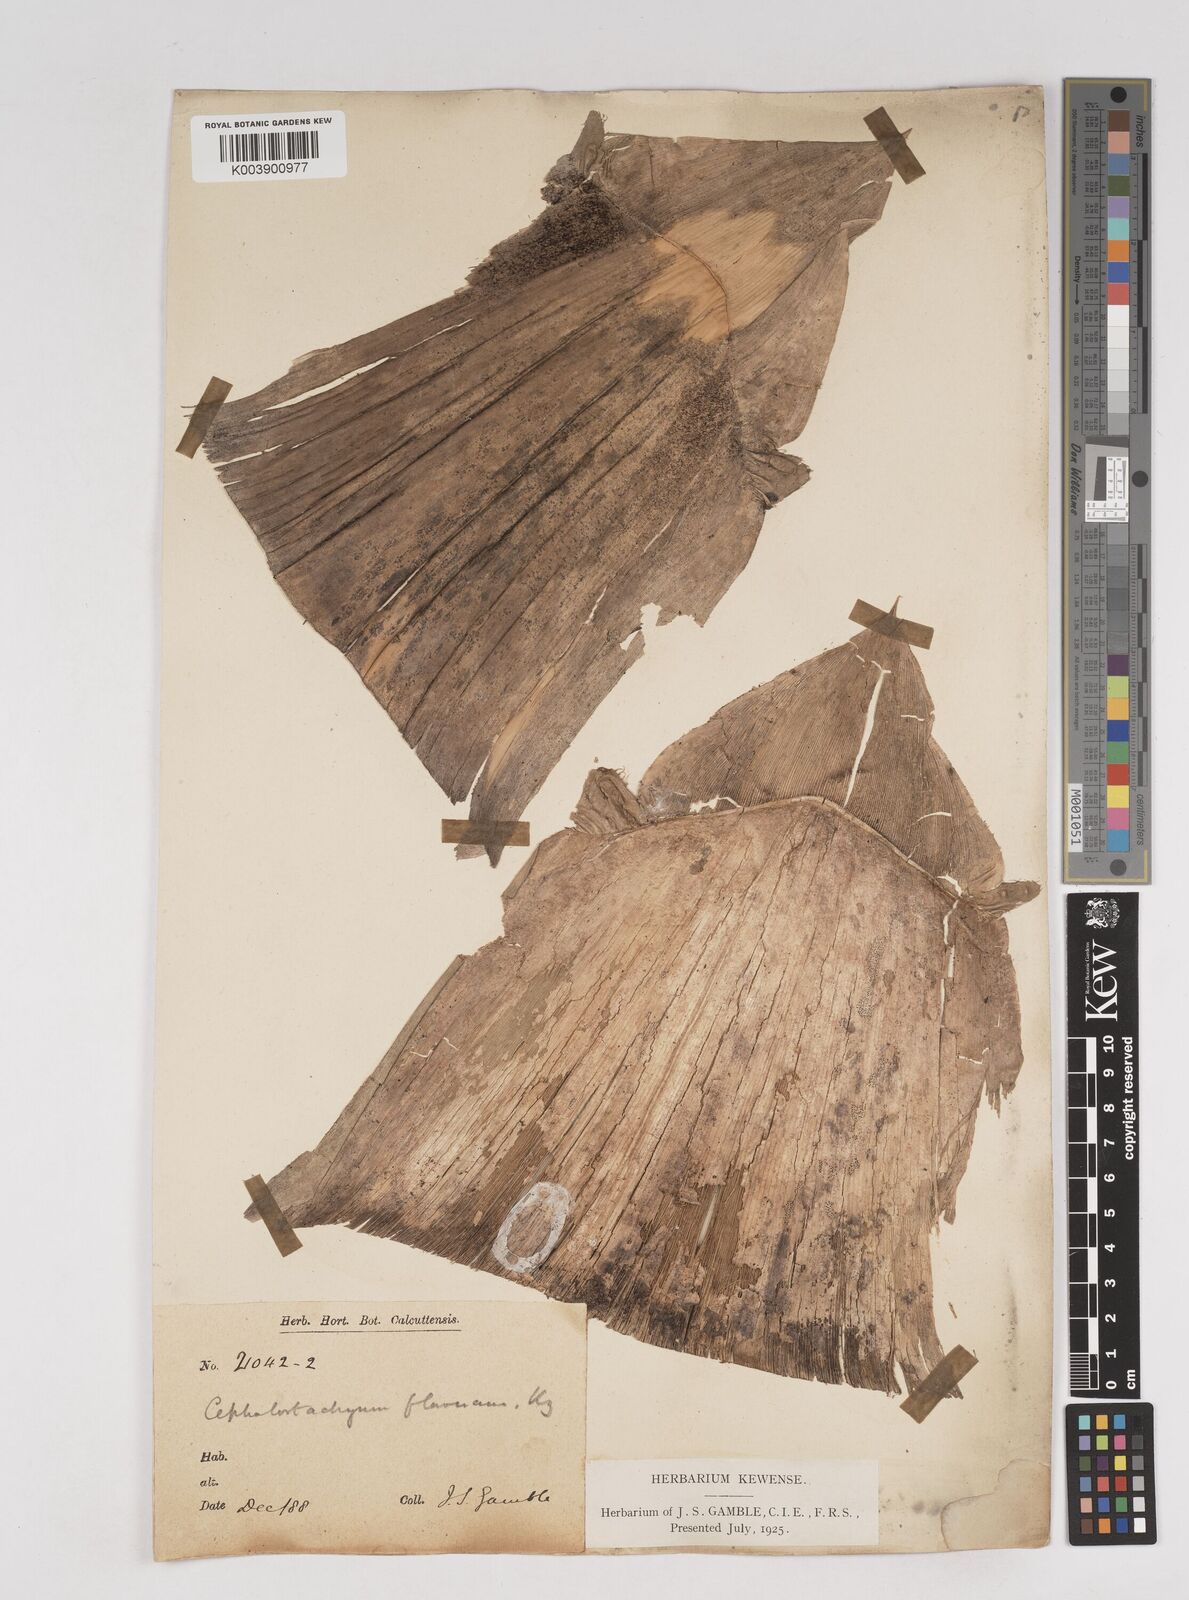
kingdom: Plantae
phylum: Tracheophyta
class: Liliopsida
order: Poales
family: Poaceae
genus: Cephalostachyum
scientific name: Cephalostachyum flavescens
